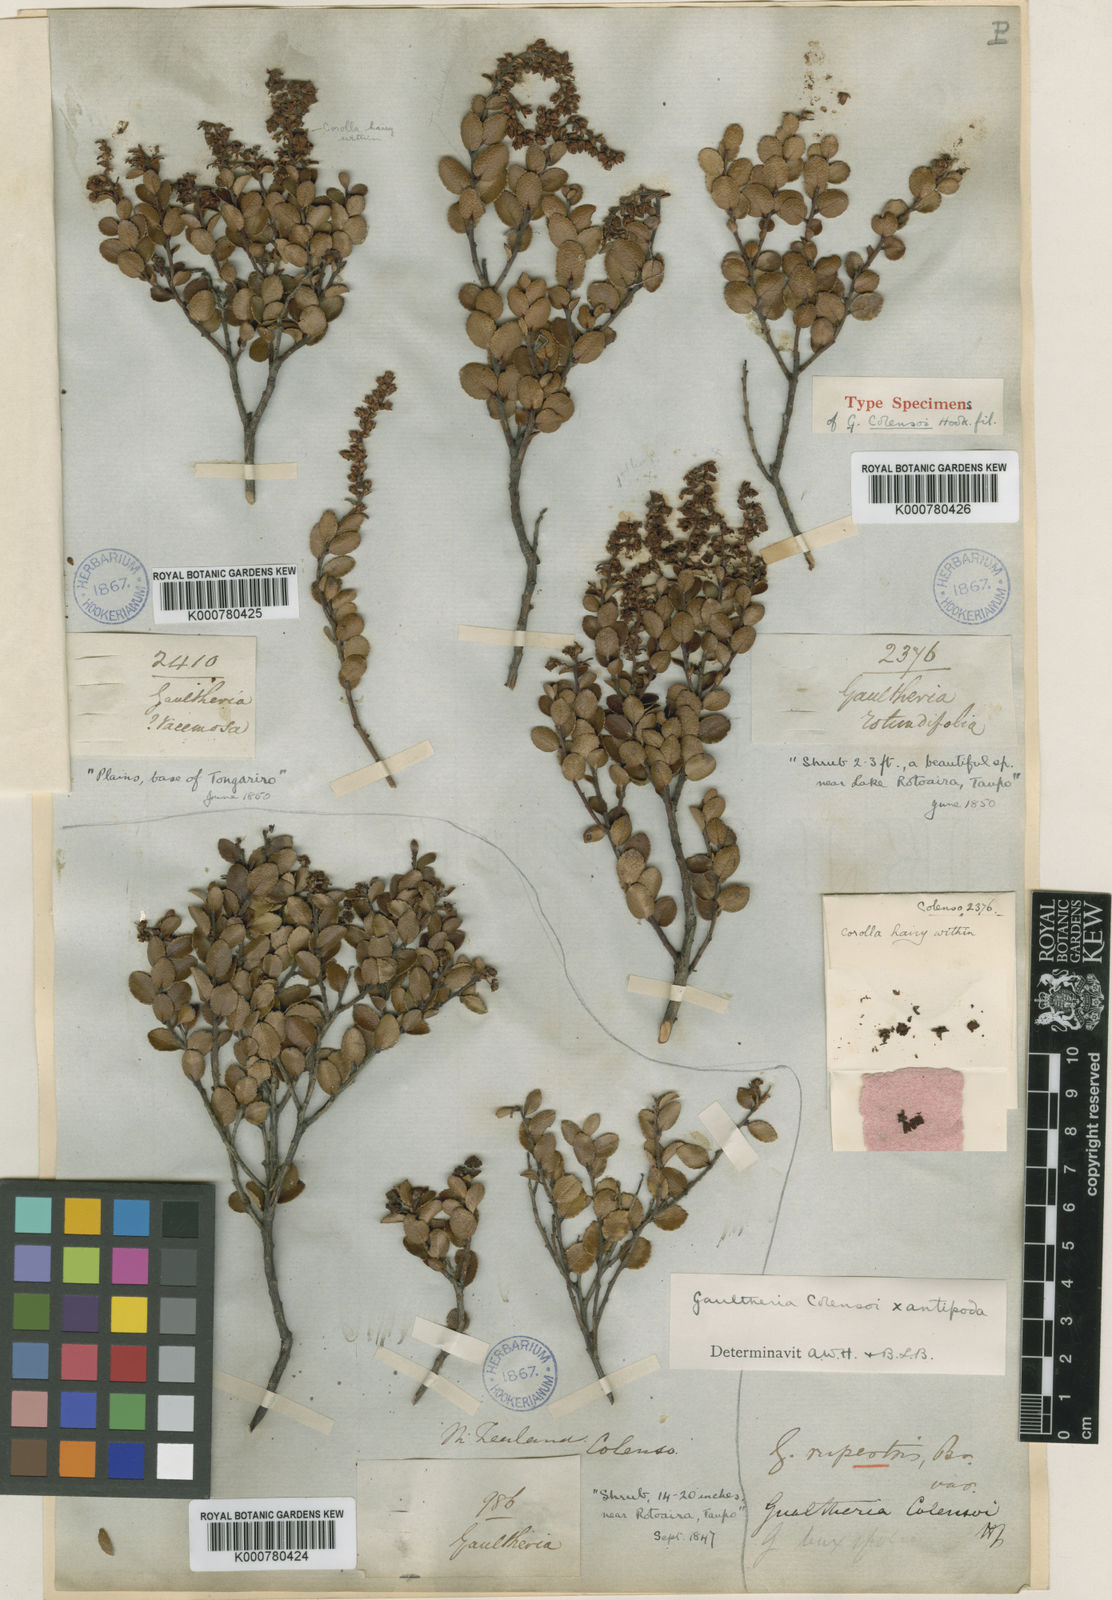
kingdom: Plantae
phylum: Tracheophyta
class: Magnoliopsida
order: Ericales
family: Ericaceae
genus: Gaultheria
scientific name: Gaultheria colensoi
